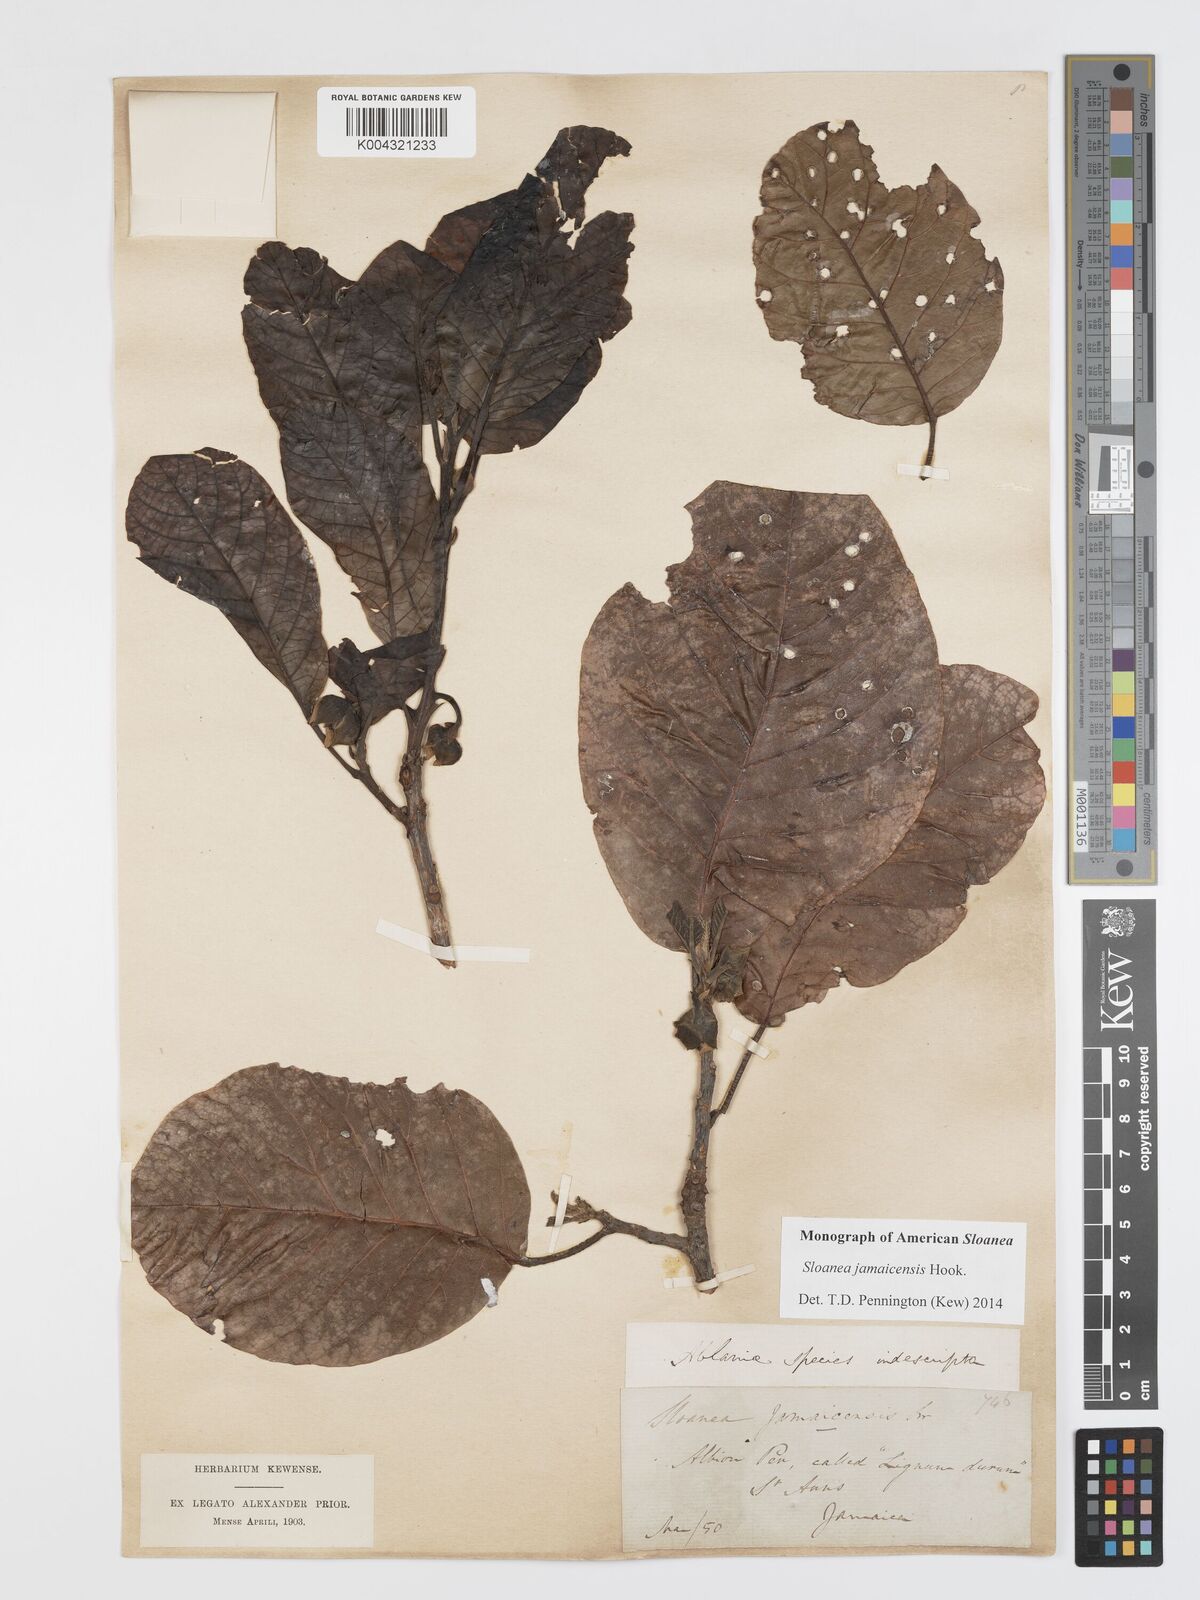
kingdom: Plantae
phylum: Tracheophyta
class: Magnoliopsida
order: Oxalidales
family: Elaeocarpaceae
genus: Sloanea
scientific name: Sloanea jamaicensis
